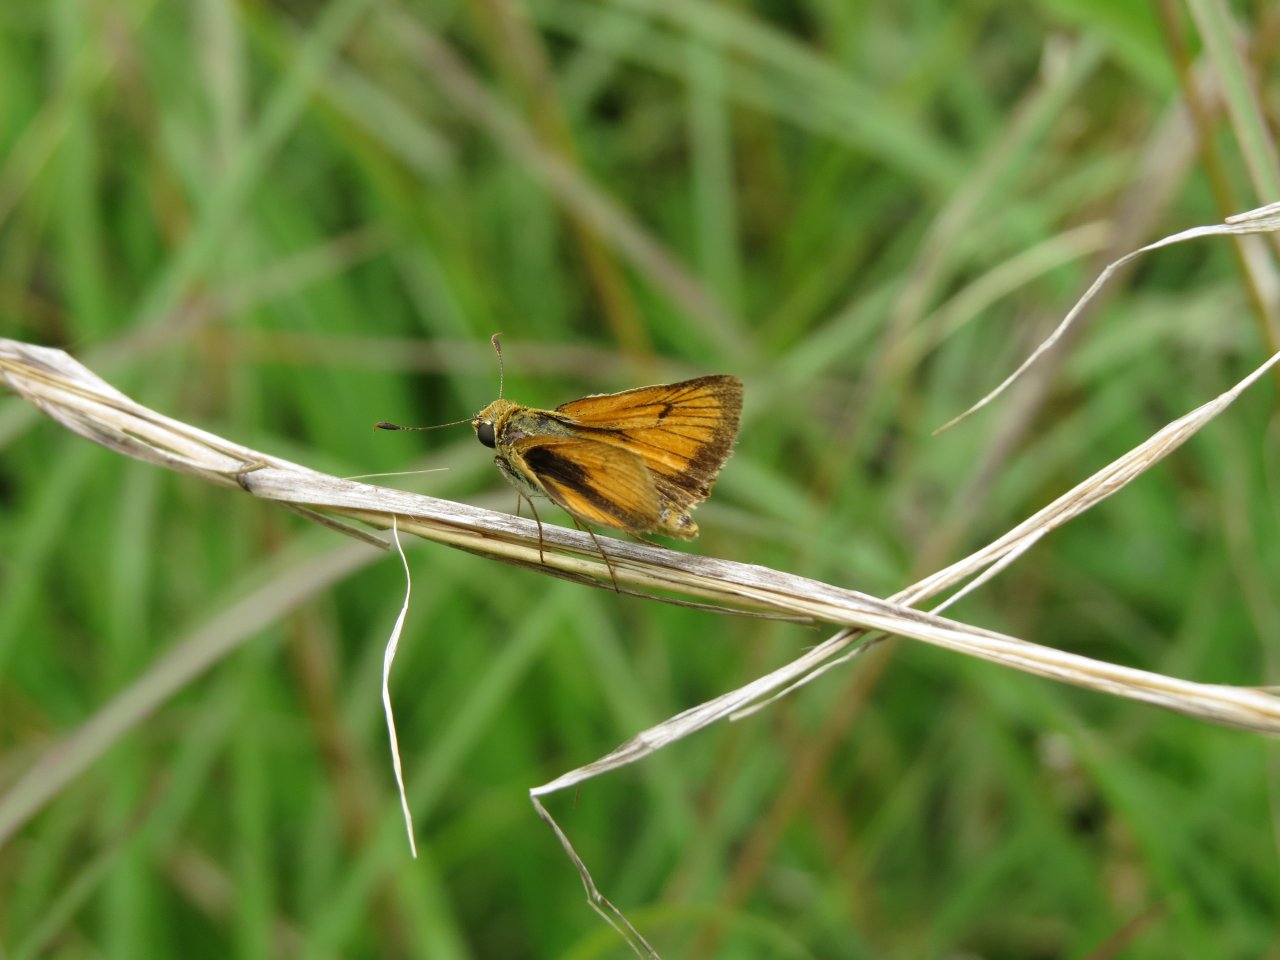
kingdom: Animalia
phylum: Arthropoda
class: Insecta
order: Lepidoptera
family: Hesperiidae
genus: Atrytone
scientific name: Atrytone delaware
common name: Delaware Skipper
